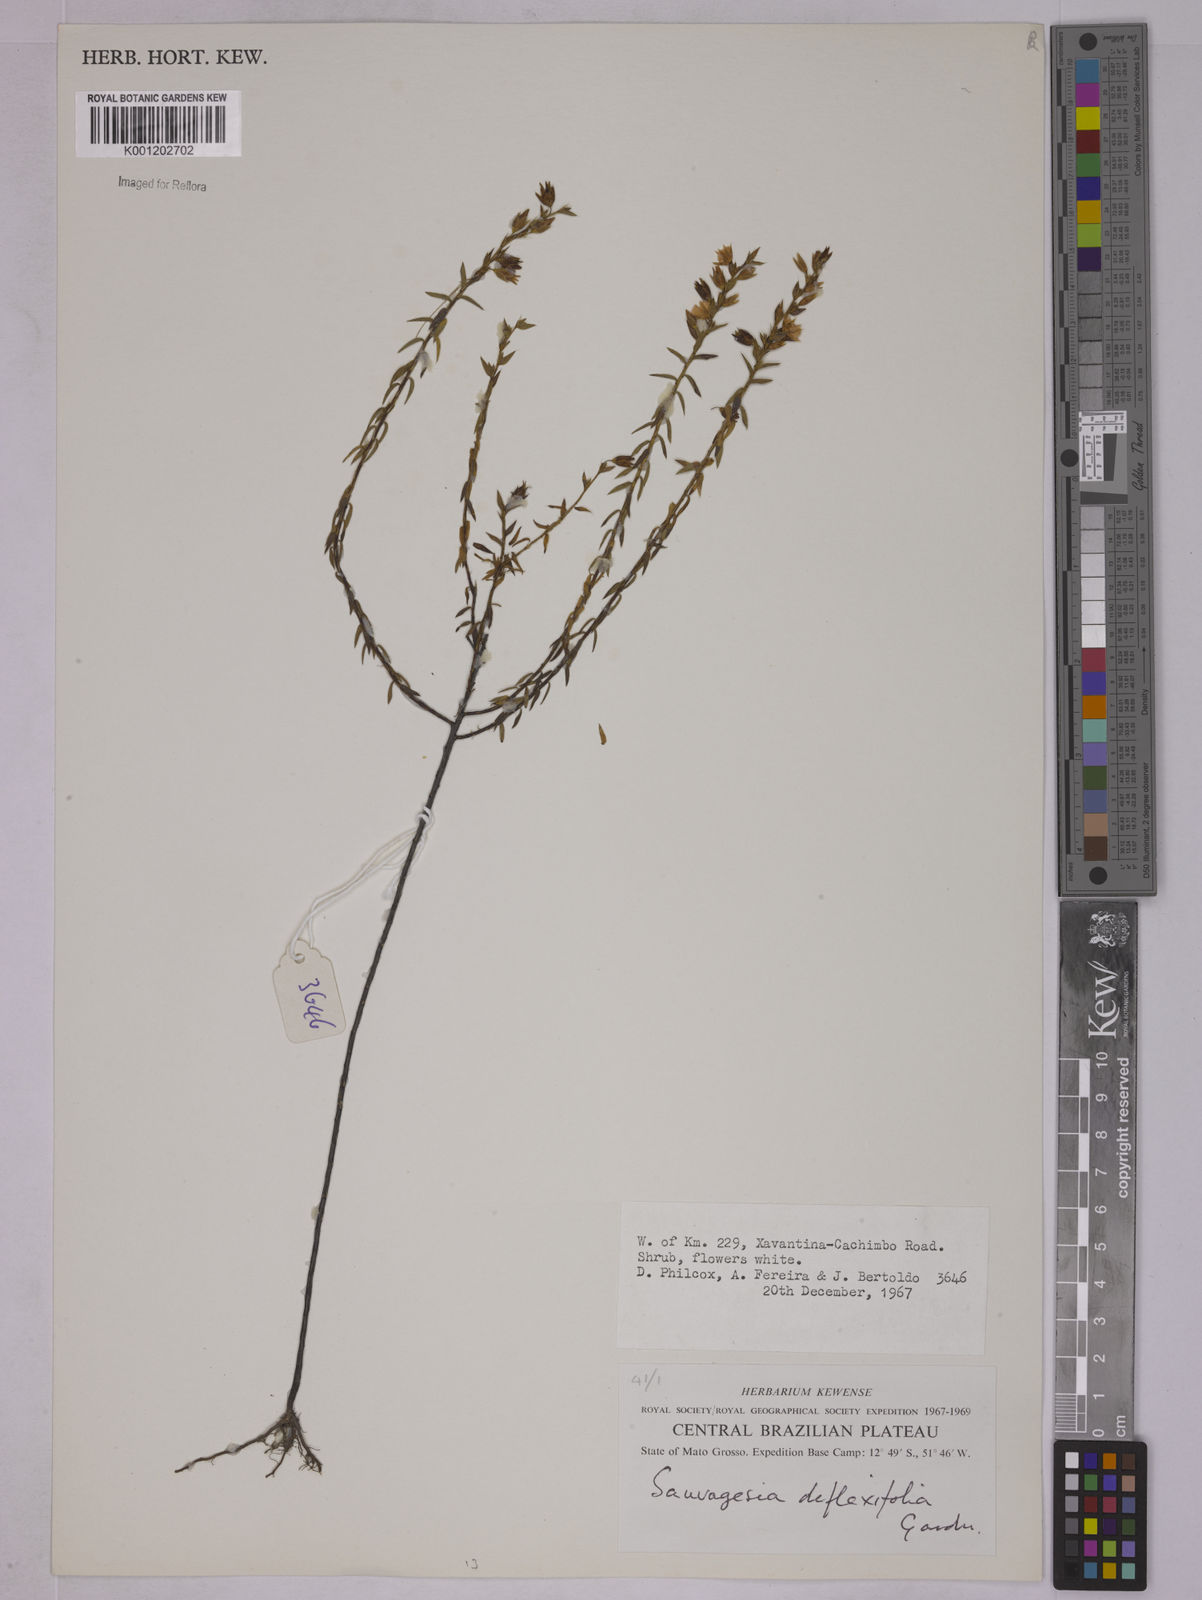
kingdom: Plantae
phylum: Tracheophyta
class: Magnoliopsida
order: Malpighiales
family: Ochnaceae
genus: Sauvagesia
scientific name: Sauvagesia deflexifolia
